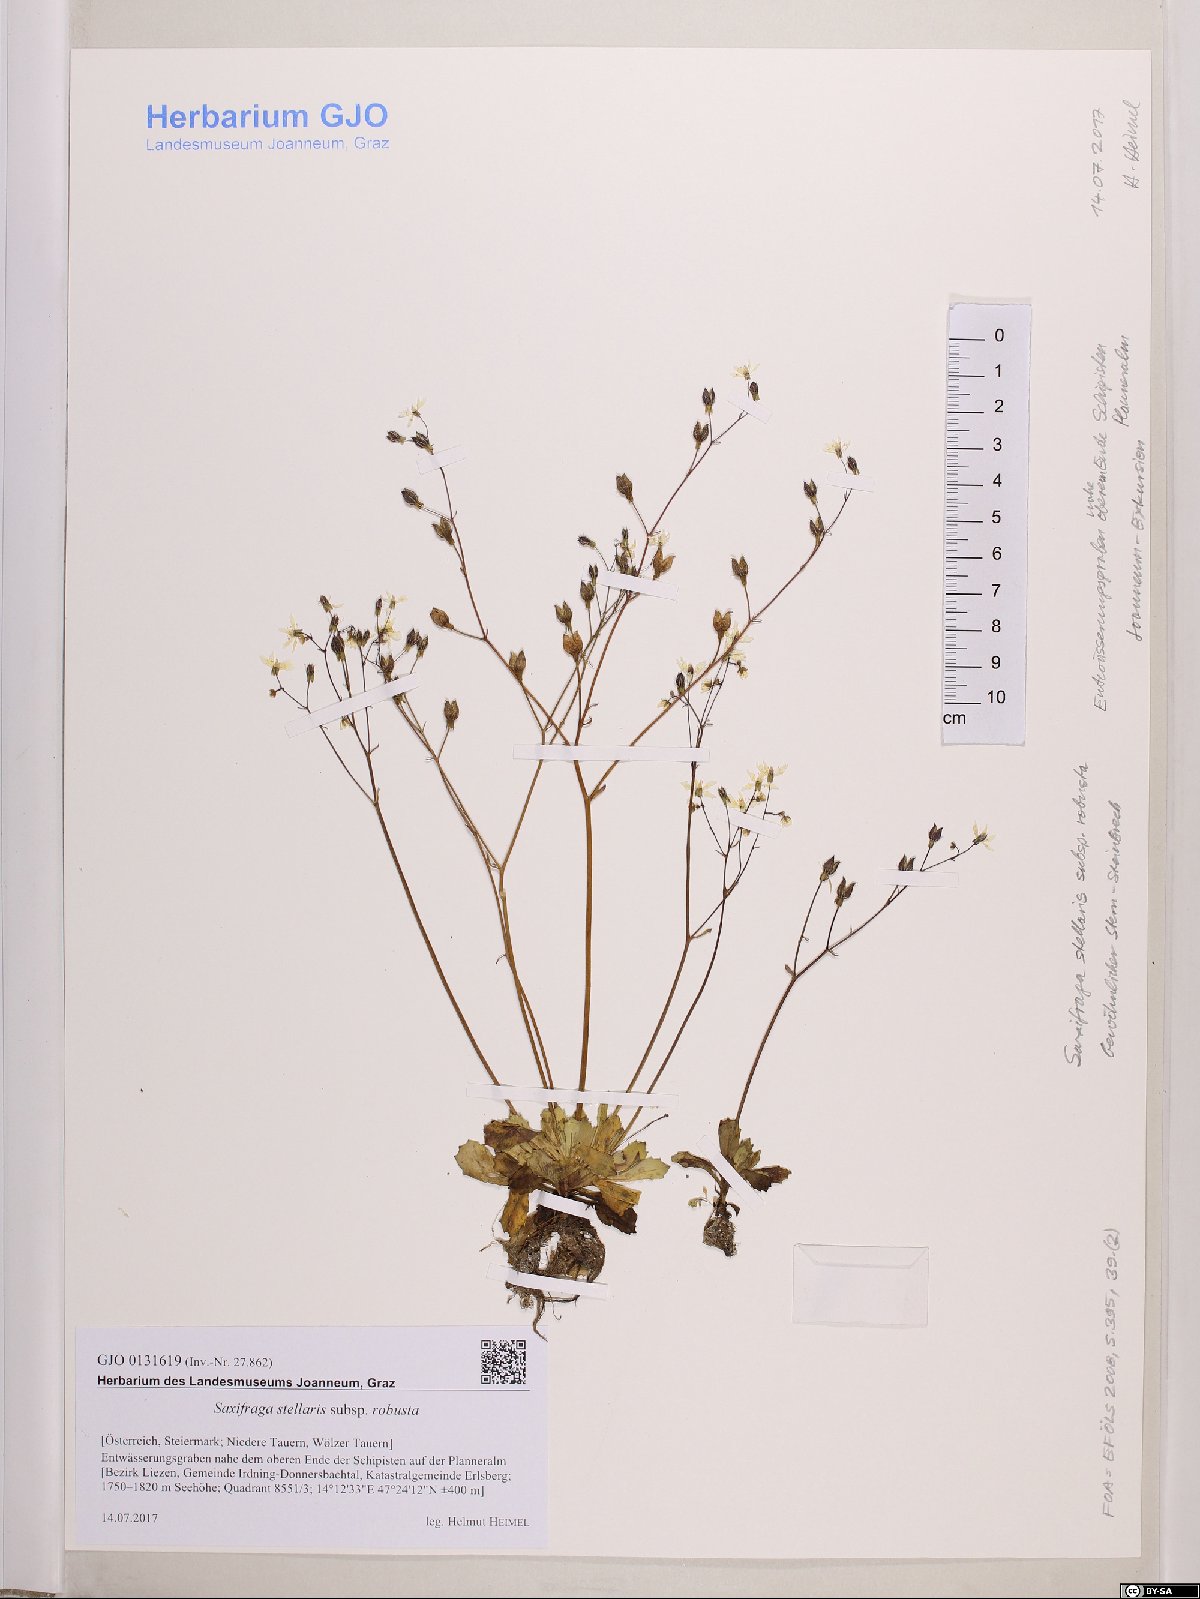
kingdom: Plantae
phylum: Tracheophyta
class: Magnoliopsida
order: Saxifragales
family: Saxifragaceae
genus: Micranthes
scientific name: Micranthes stellaris
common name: Starry saxifrage
